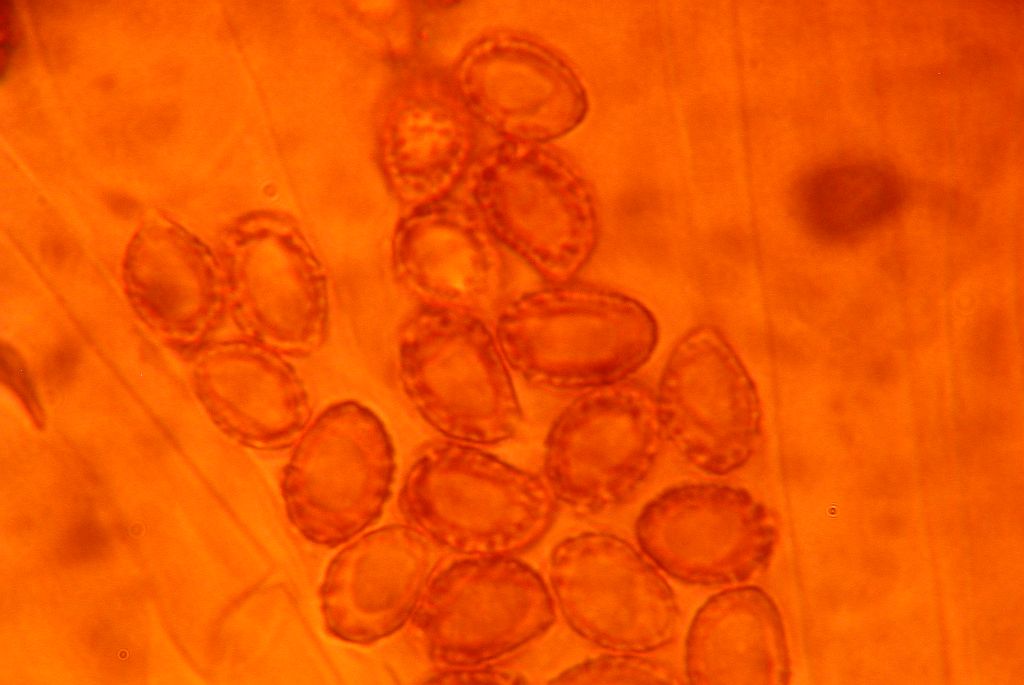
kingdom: Fungi
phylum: Basidiomycota
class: Agaricomycetes
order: Agaricales
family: Cortinariaceae
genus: Cortinarius
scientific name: Cortinarius vernus
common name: sommer-slørhat
